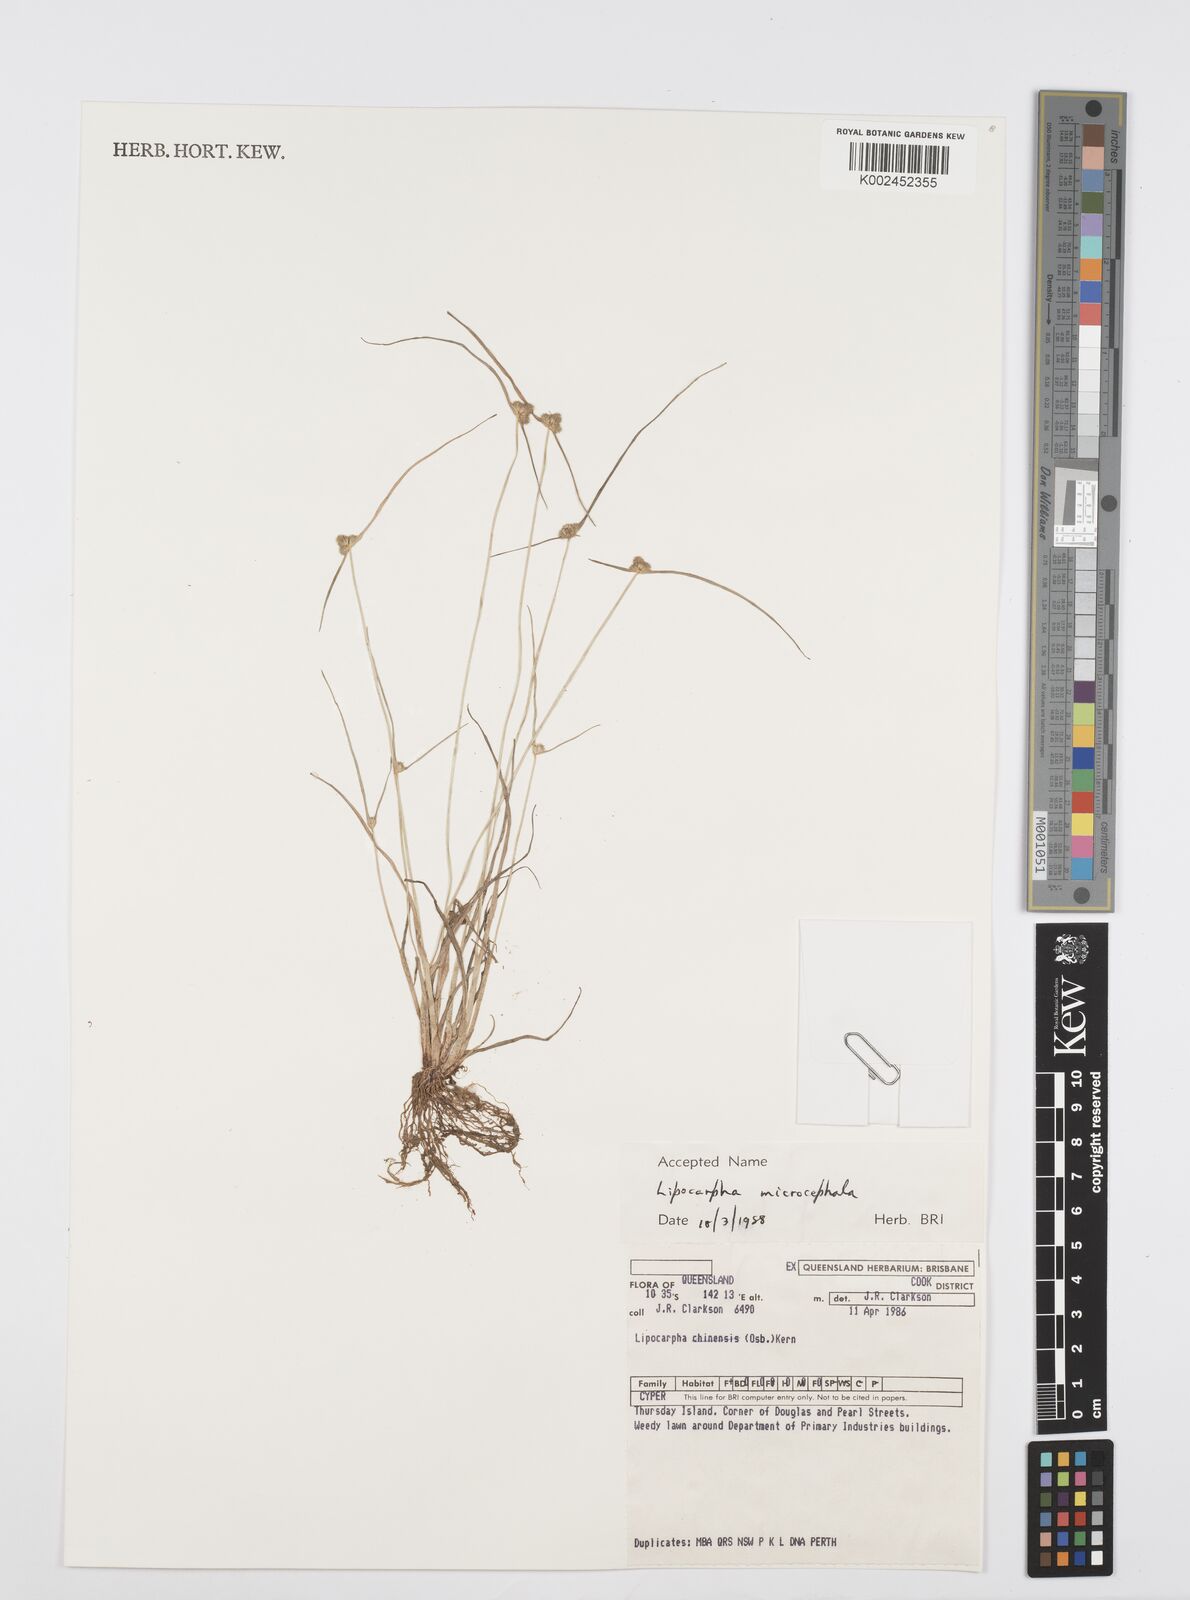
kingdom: Plantae
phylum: Tracheophyta
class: Liliopsida
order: Poales
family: Cyperaceae
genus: Cyperus
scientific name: Cyperus microcephalus
